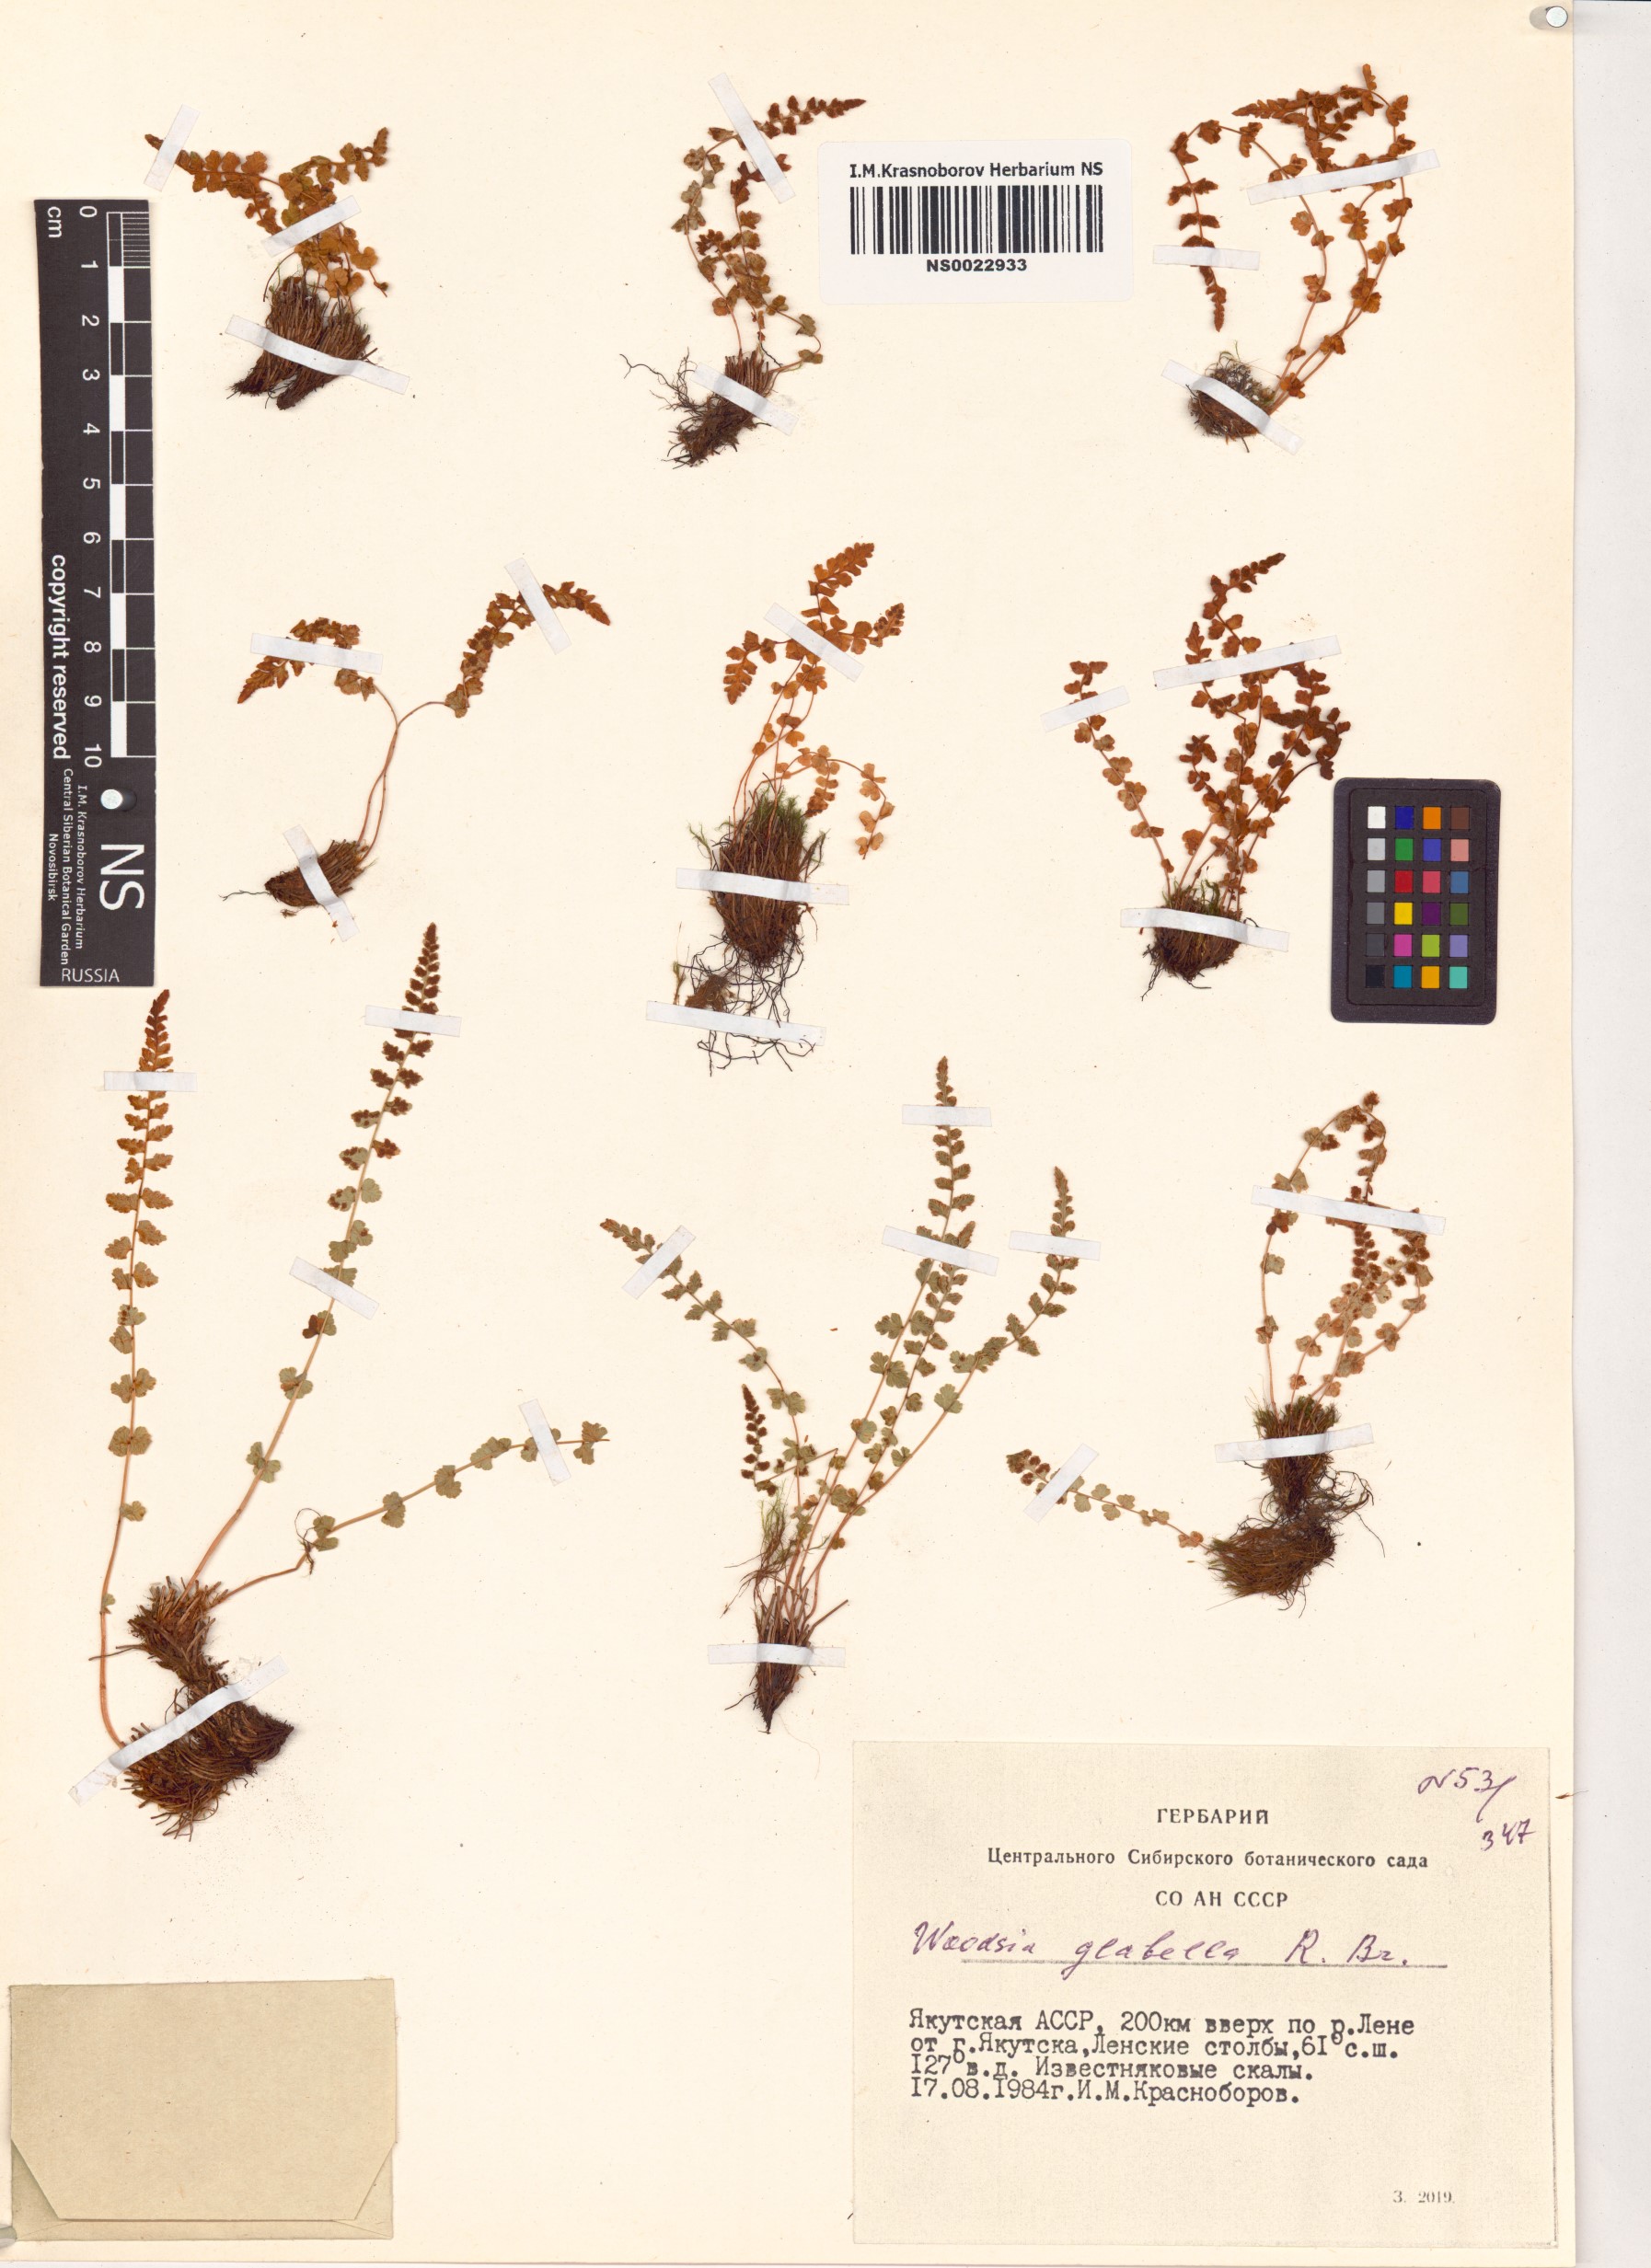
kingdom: Plantae
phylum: Tracheophyta
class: Polypodiopsida
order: Polypodiales
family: Woodsiaceae
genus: Woodsia
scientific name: Woodsia glabella
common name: Smooth woodsia
